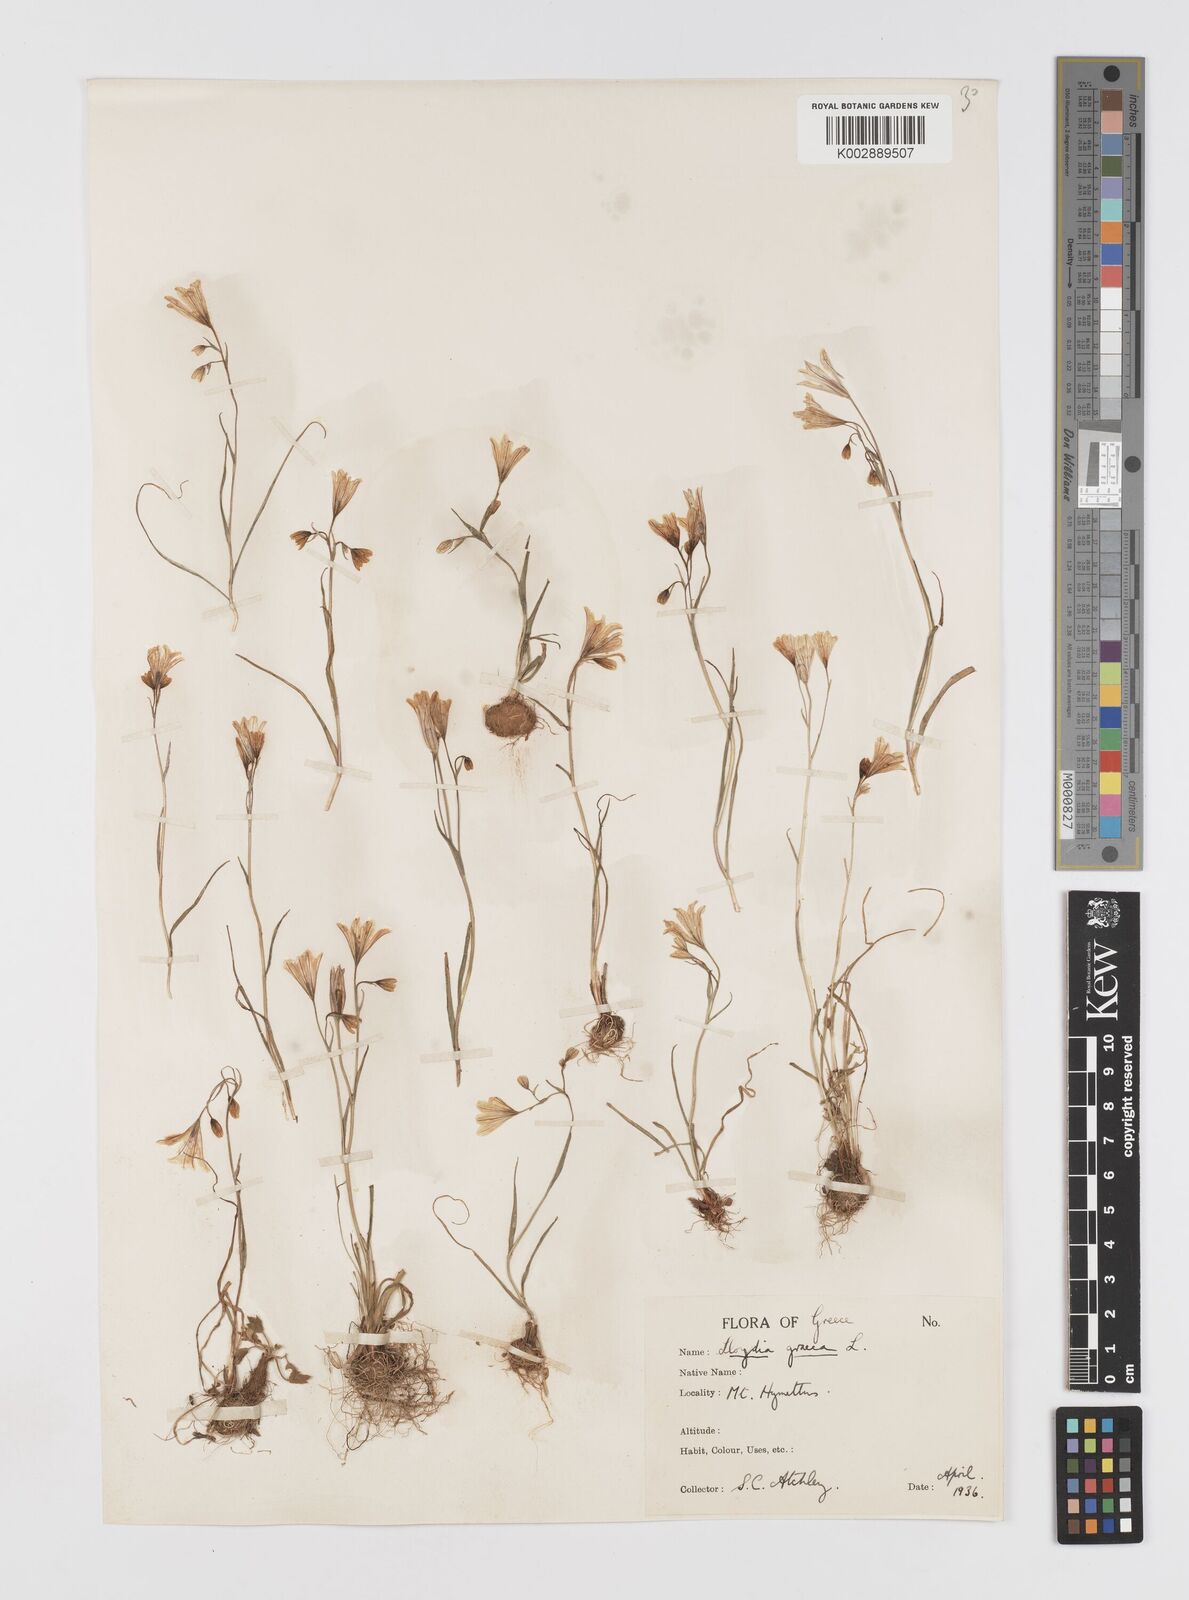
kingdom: Plantae
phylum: Tracheophyta
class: Liliopsida
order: Liliales
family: Liliaceae
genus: Gagea
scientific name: Gagea graeca
